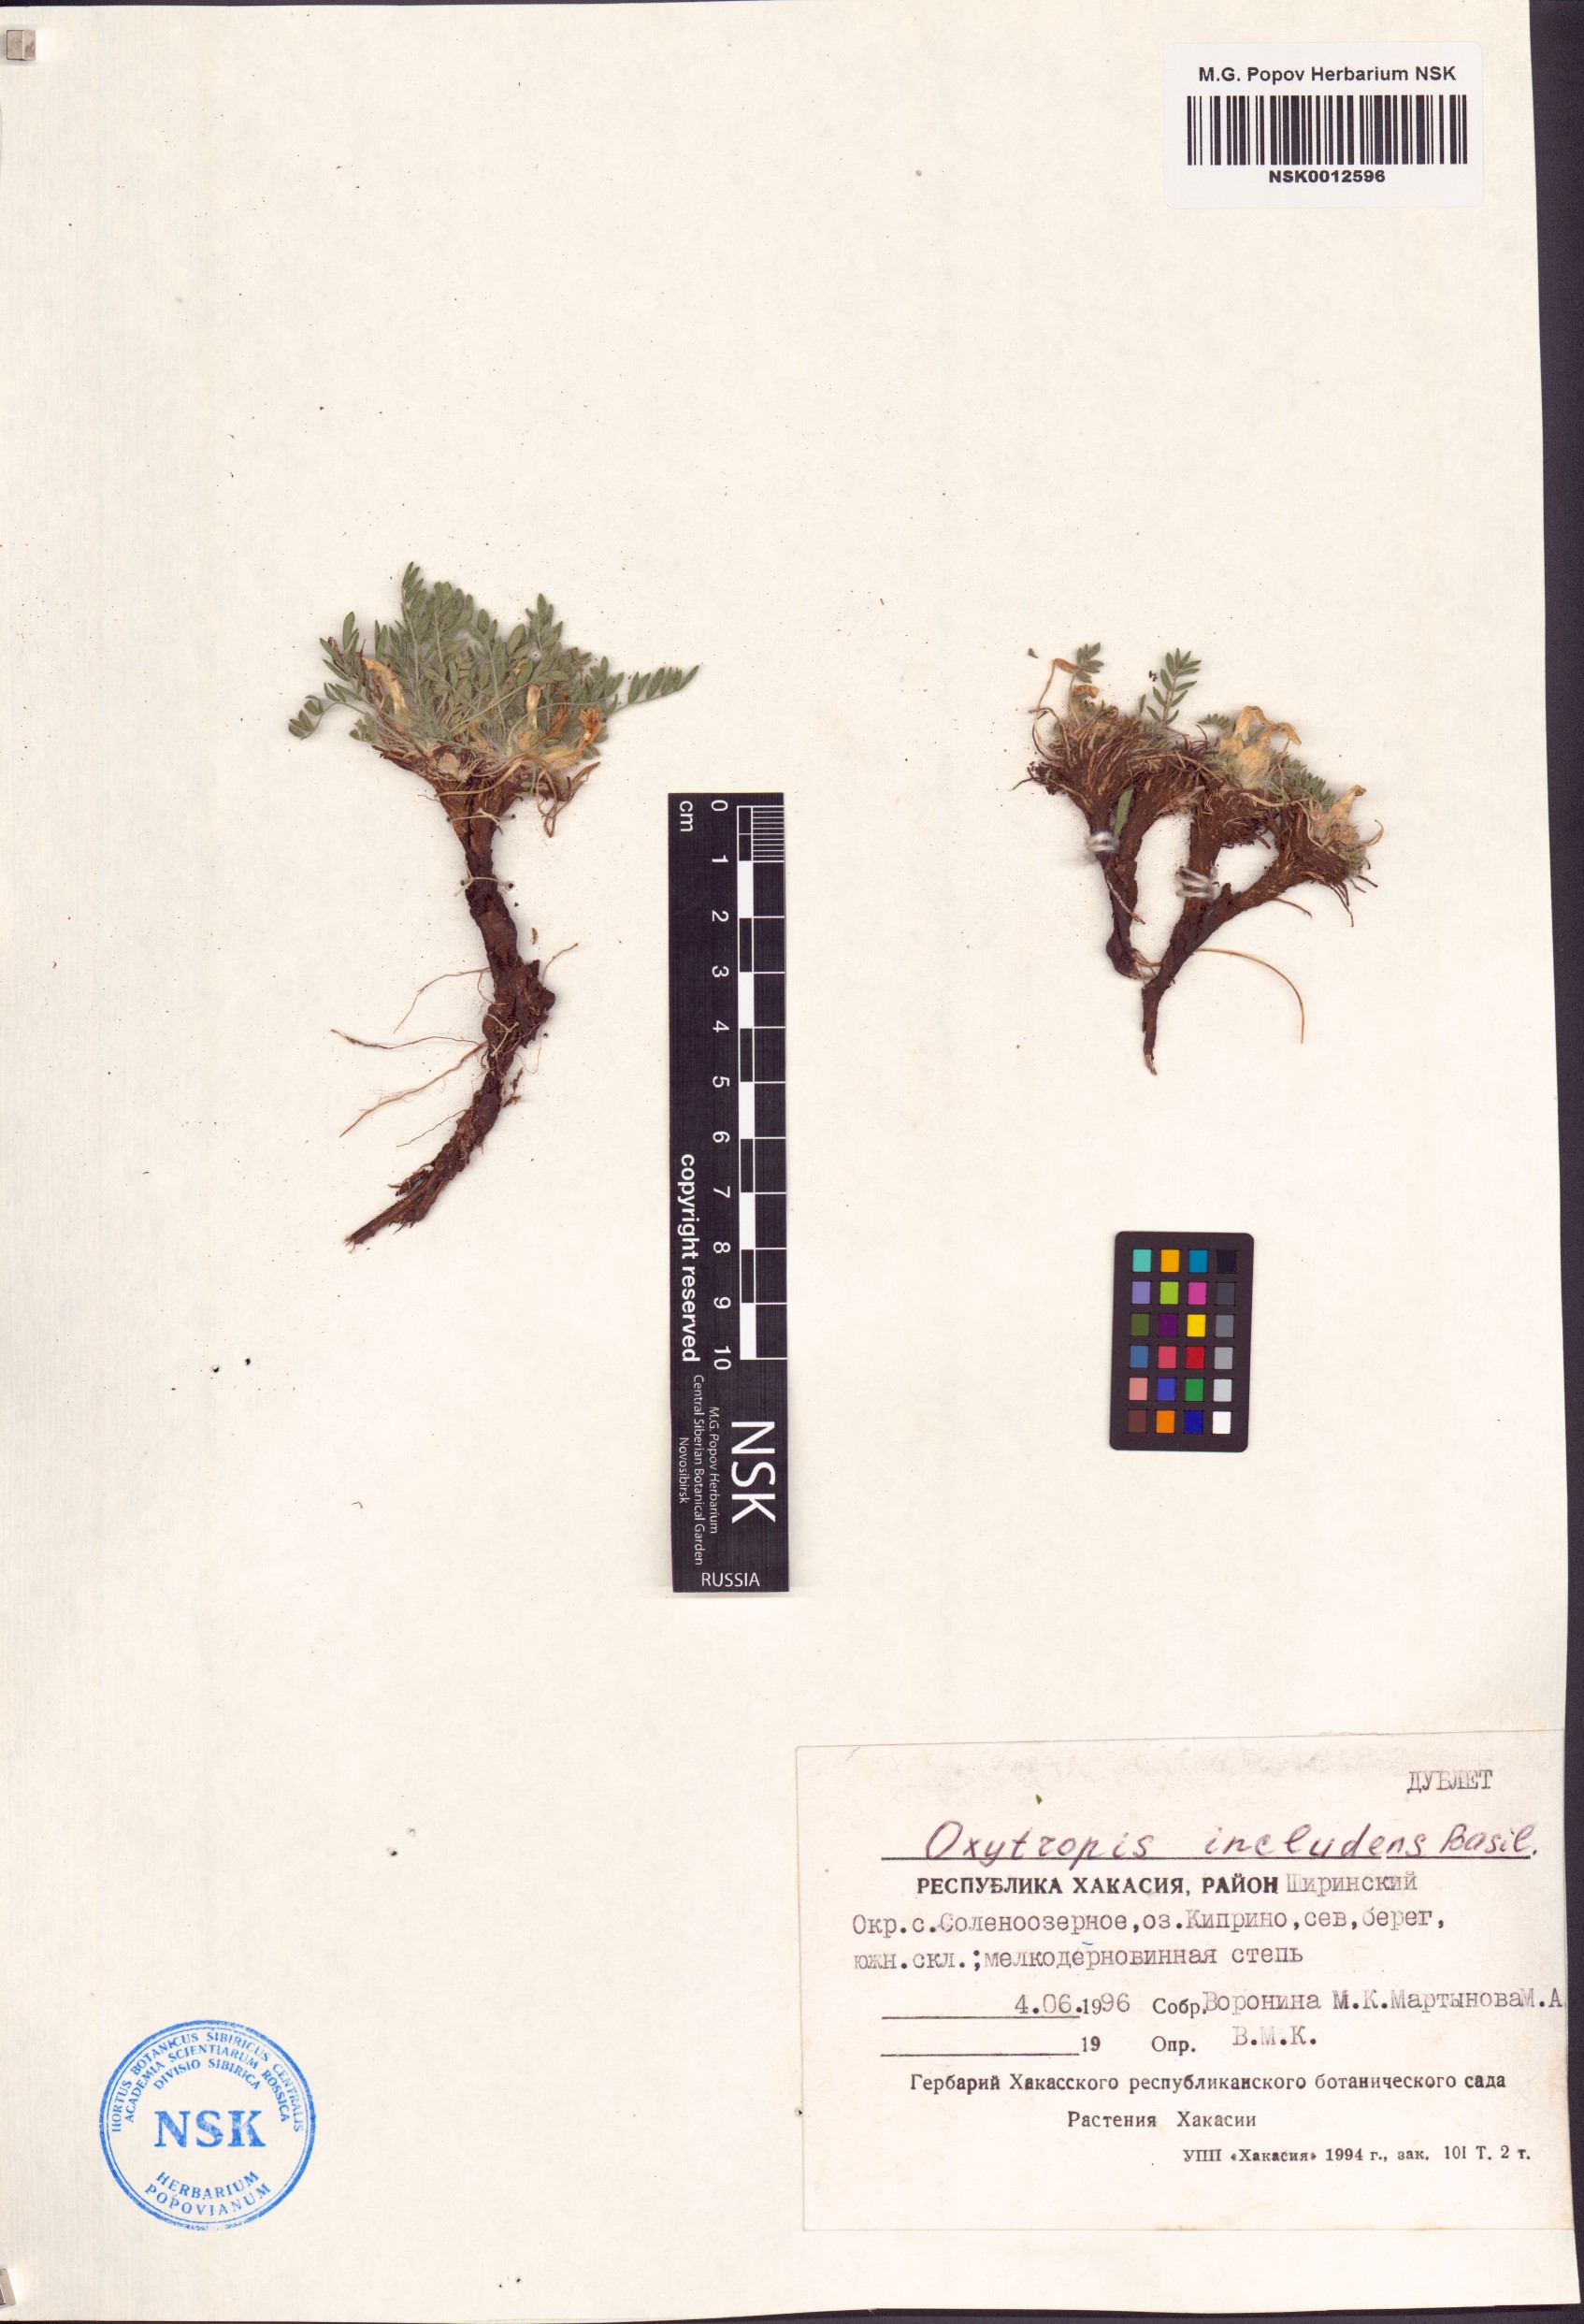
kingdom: Plantae
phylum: Tracheophyta
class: Magnoliopsida
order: Fabales
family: Fabaceae
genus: Oxytropis
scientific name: Oxytropis includens
